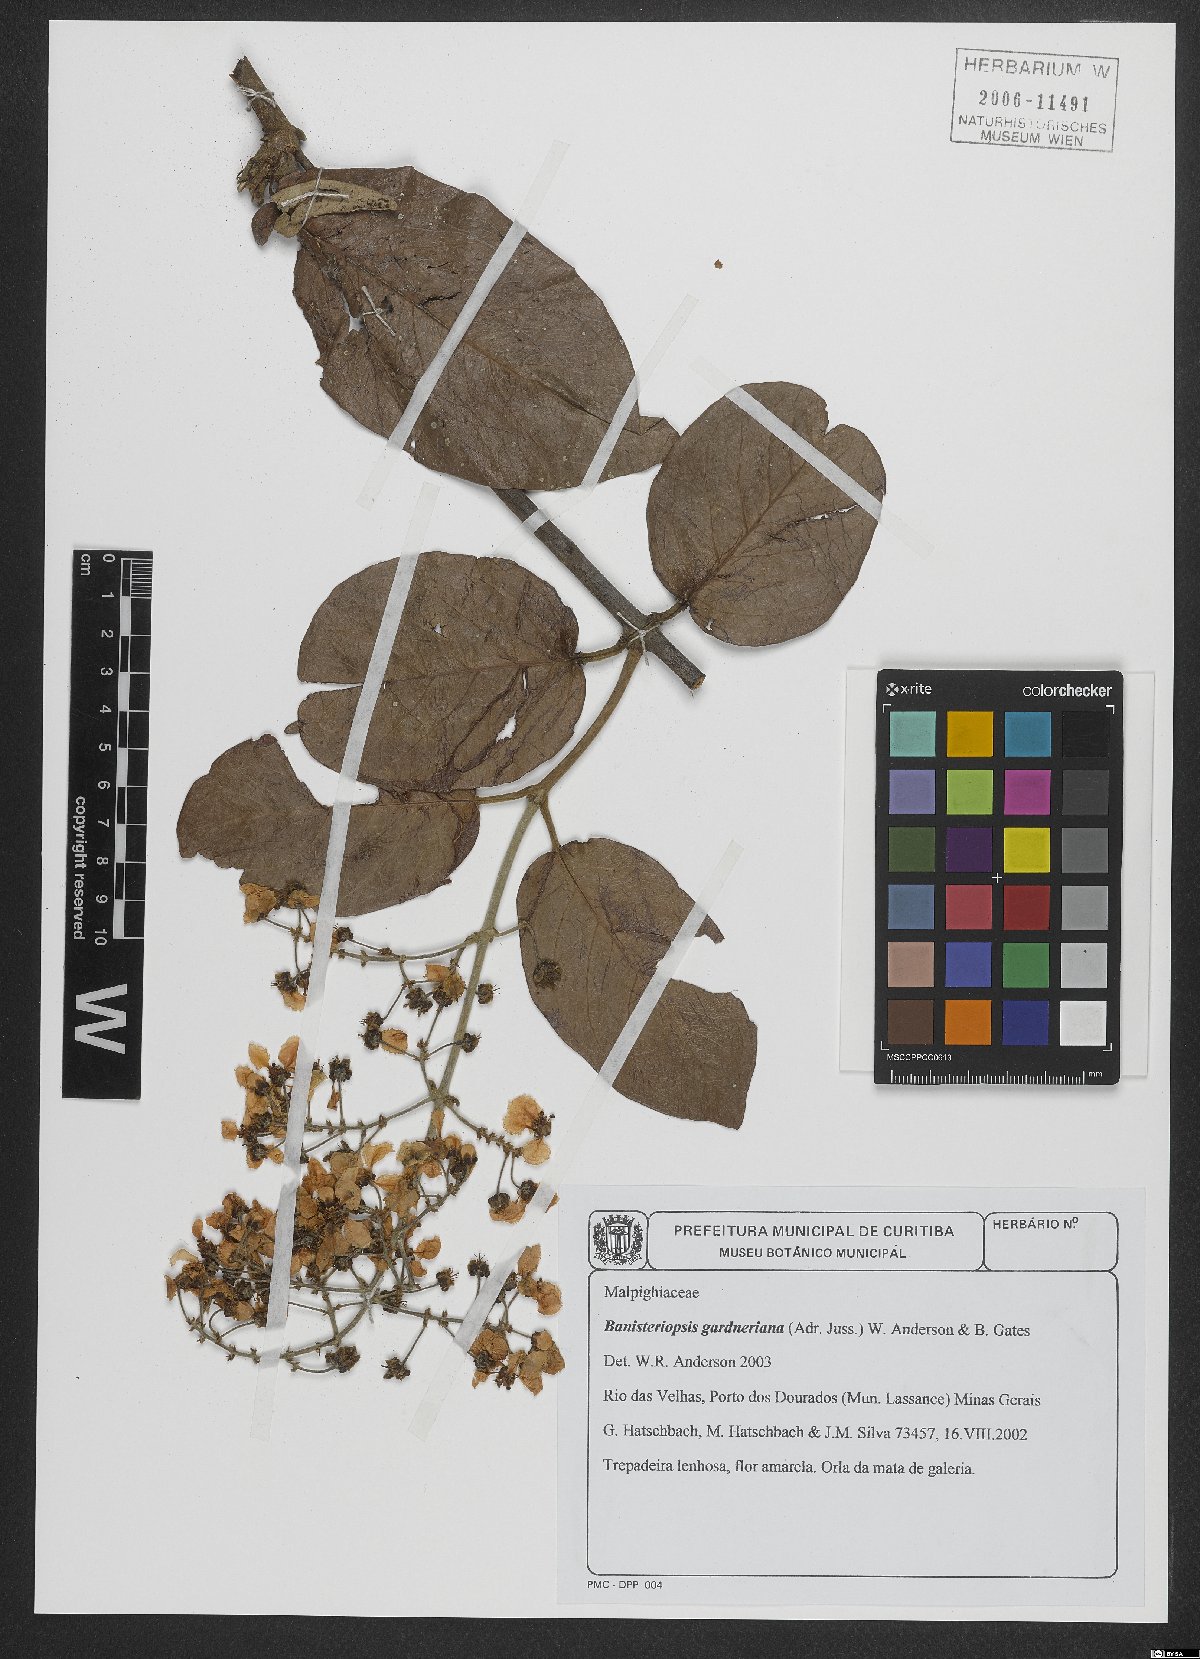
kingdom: Plantae
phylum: Tracheophyta
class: Magnoliopsida
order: Malpighiales
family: Malpighiaceae
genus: Banisteriopsis
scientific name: Banisteriopsis gardneriana
